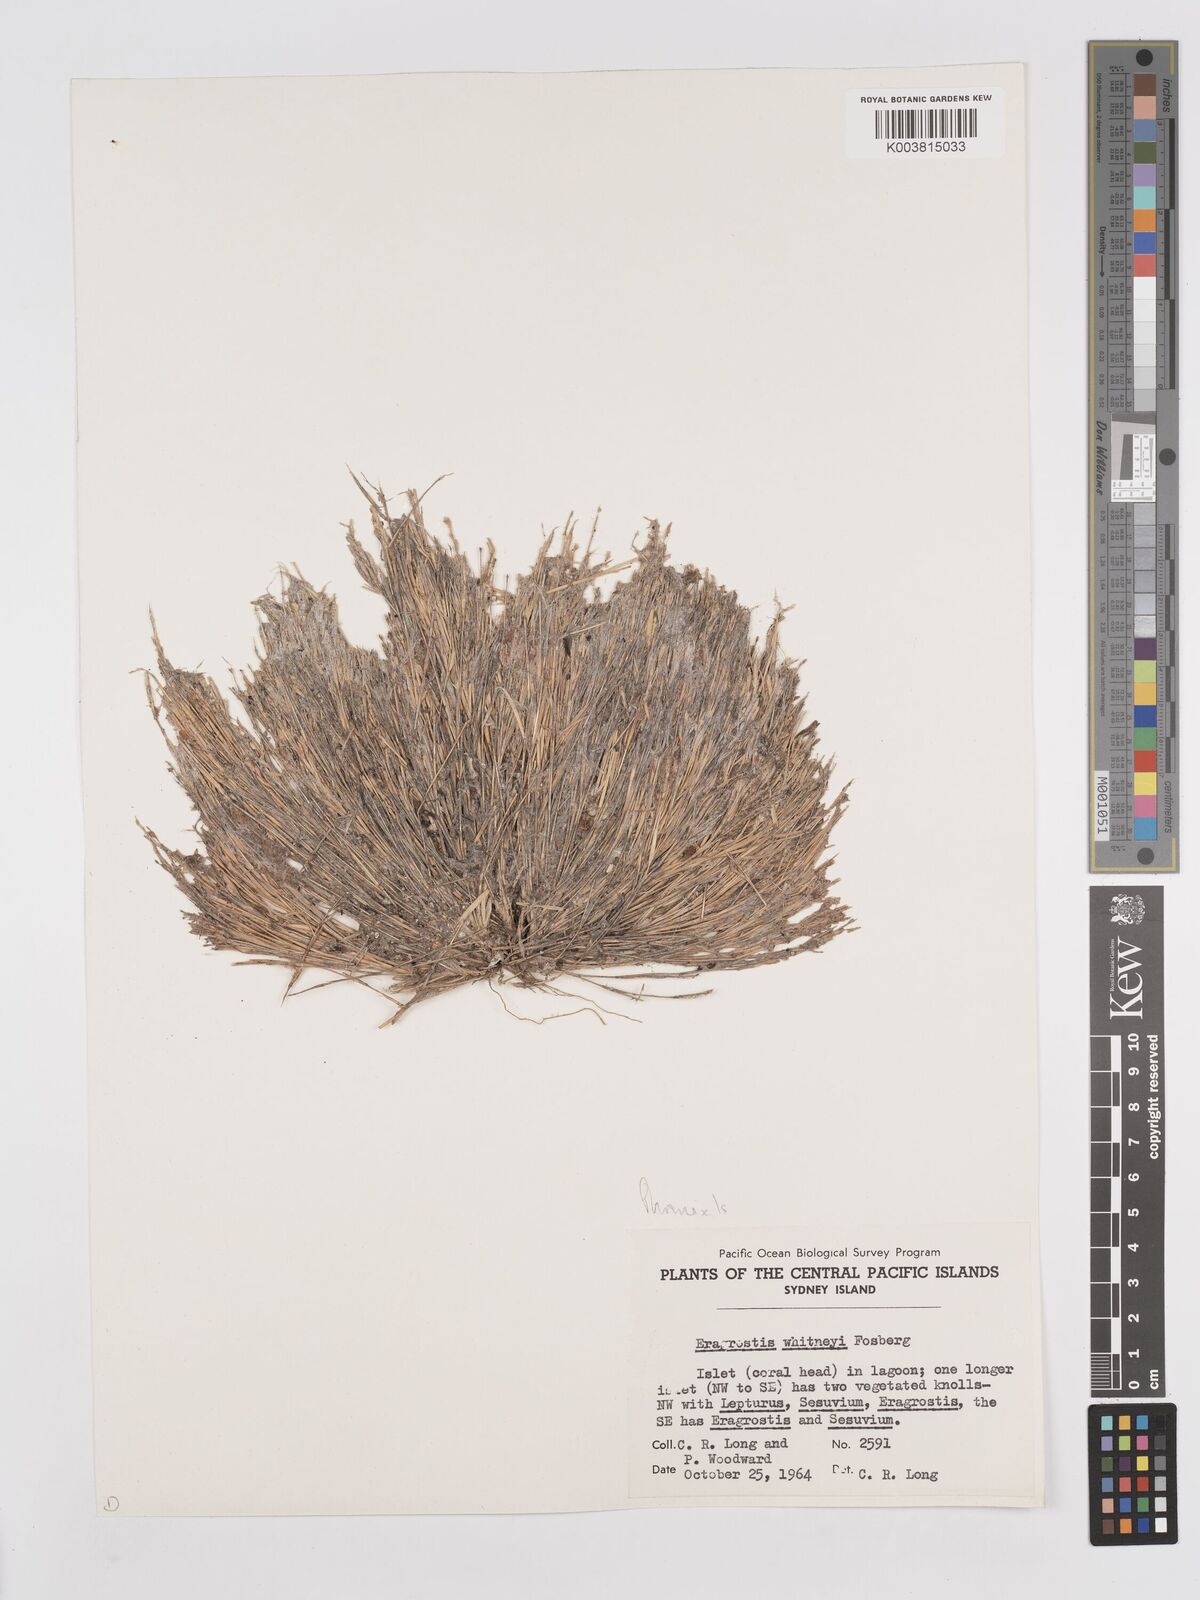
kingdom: Plantae
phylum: Tracheophyta
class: Liliopsida
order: Poales
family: Poaceae
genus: Eragrostis
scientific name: Eragrostis paupera
